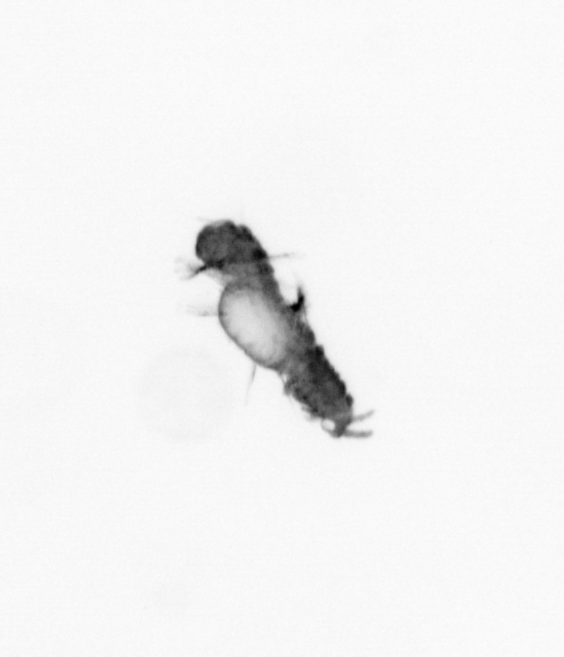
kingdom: Animalia
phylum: Annelida
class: Polychaeta
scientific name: Polychaeta
